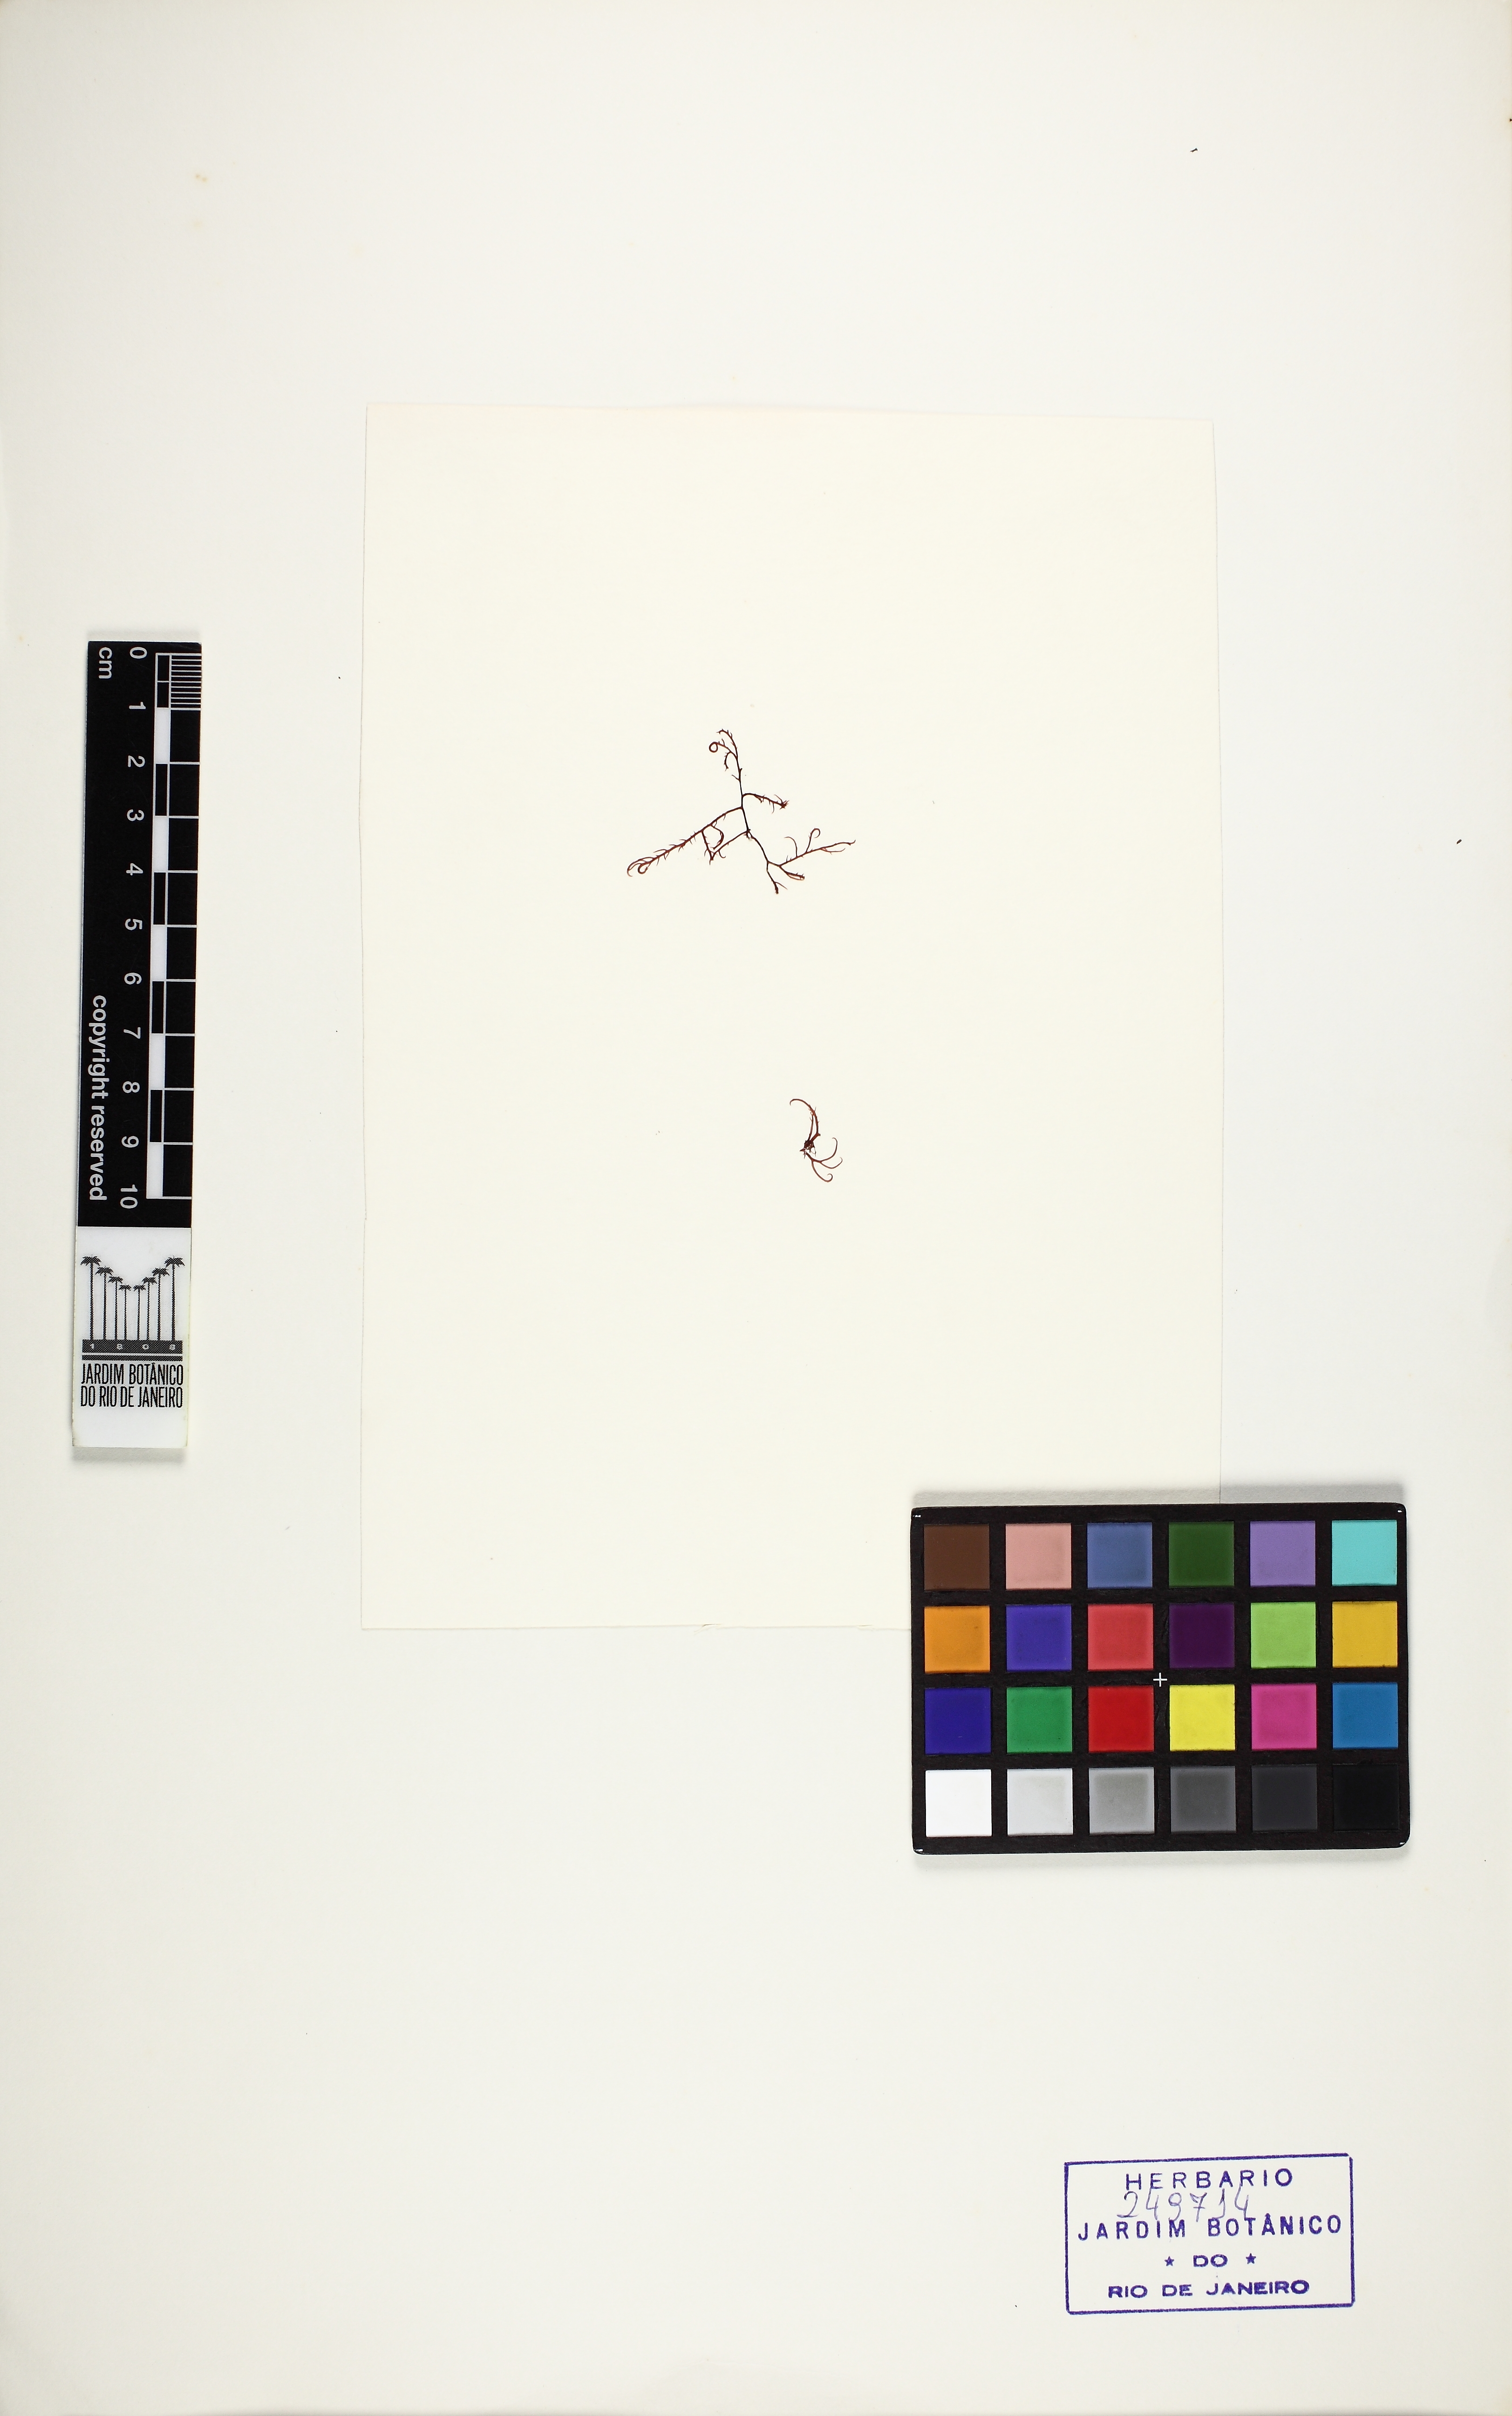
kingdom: Plantae
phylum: Rhodophyta
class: Florideophyceae
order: Gigartinales
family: Cystocloniaceae
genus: Hypnea
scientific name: Hypnea musciformis
